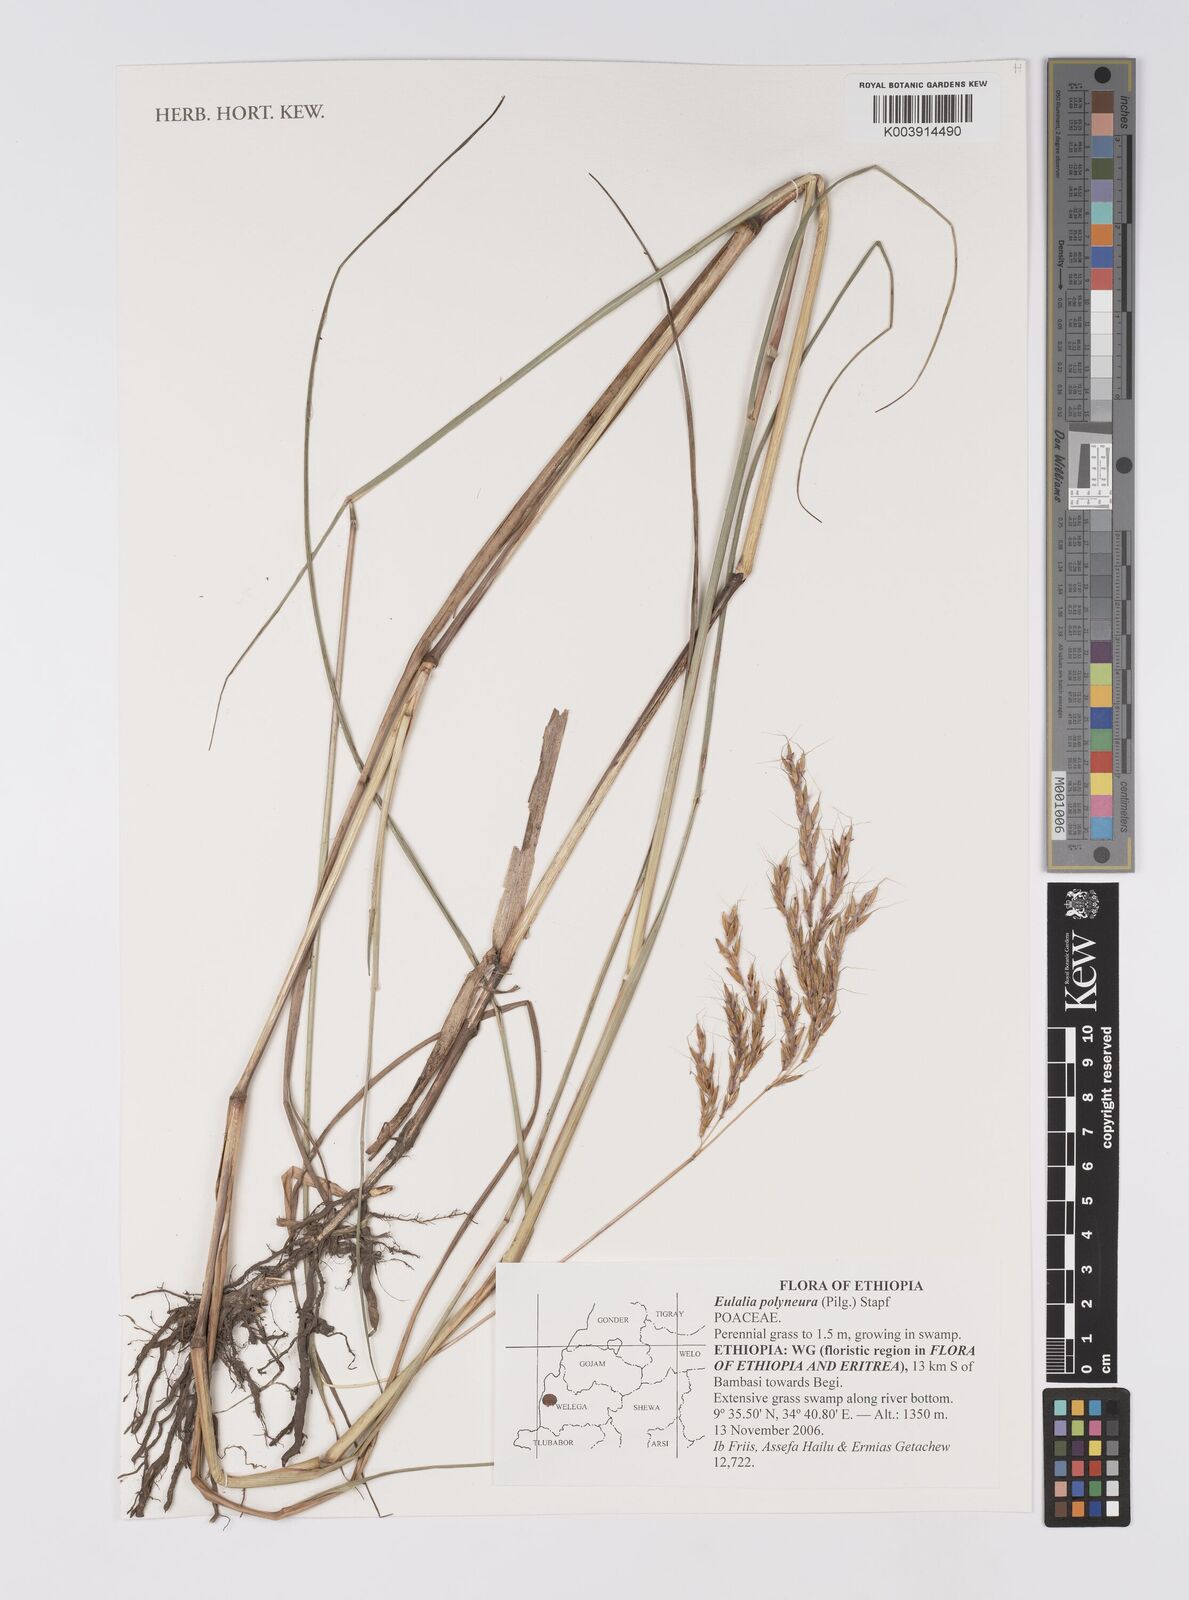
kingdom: Plantae
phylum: Tracheophyta
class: Liliopsida
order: Poales
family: Poaceae
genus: Eulalia
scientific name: Eulalia polyneura
